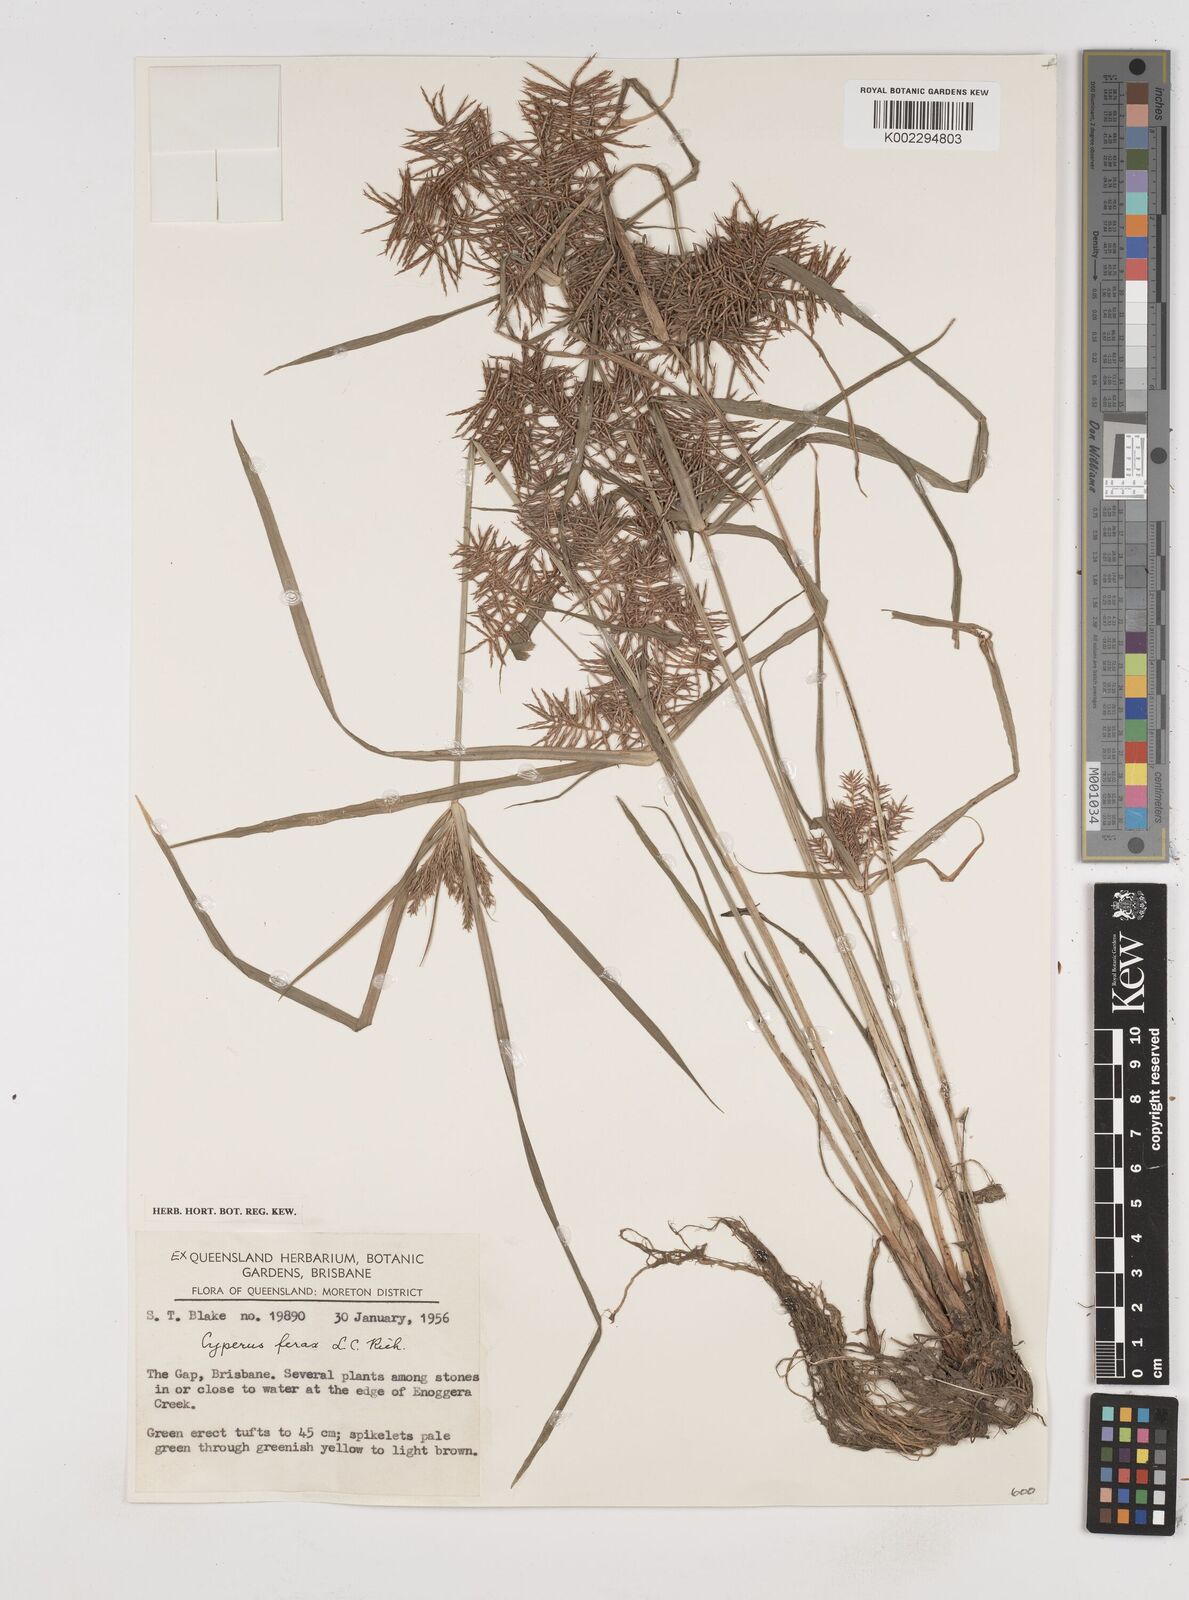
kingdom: Plantae
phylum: Tracheophyta
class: Liliopsida
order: Poales
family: Cyperaceae
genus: Cyperus
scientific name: Cyperus odoratus
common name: Fragrant flatsedge
